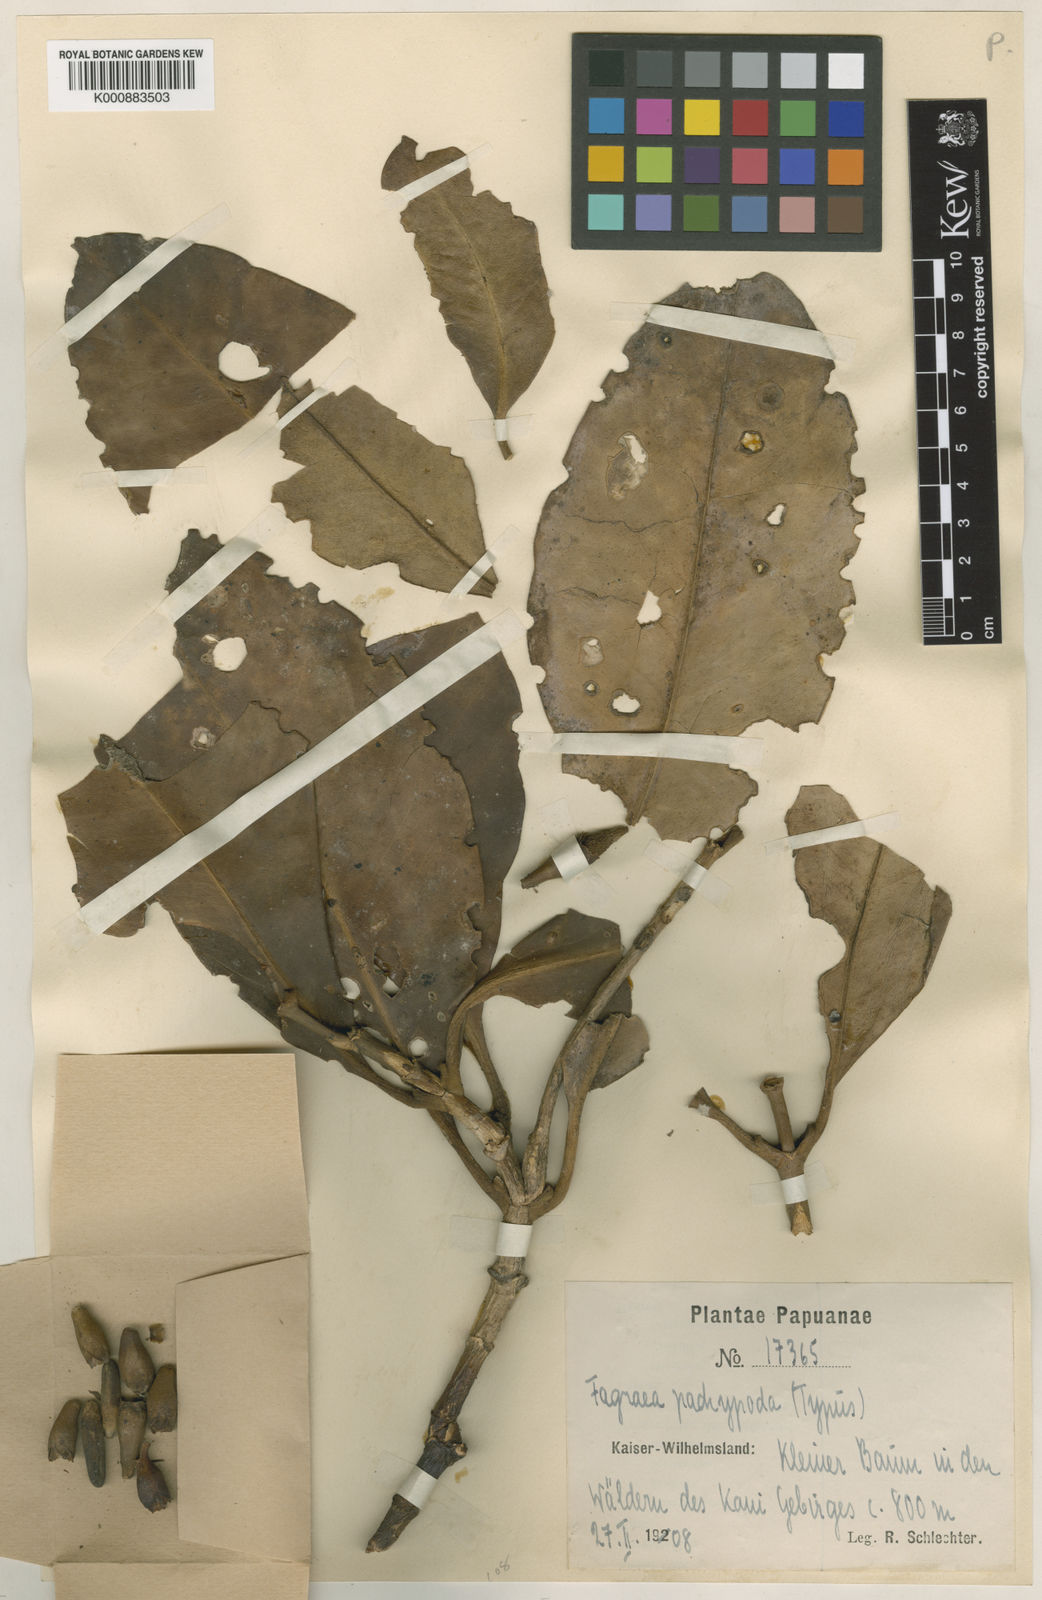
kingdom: Plantae
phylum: Tracheophyta
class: Magnoliopsida
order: Gentianales
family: Gentianaceae
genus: Fagraea
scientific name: Fagraea
